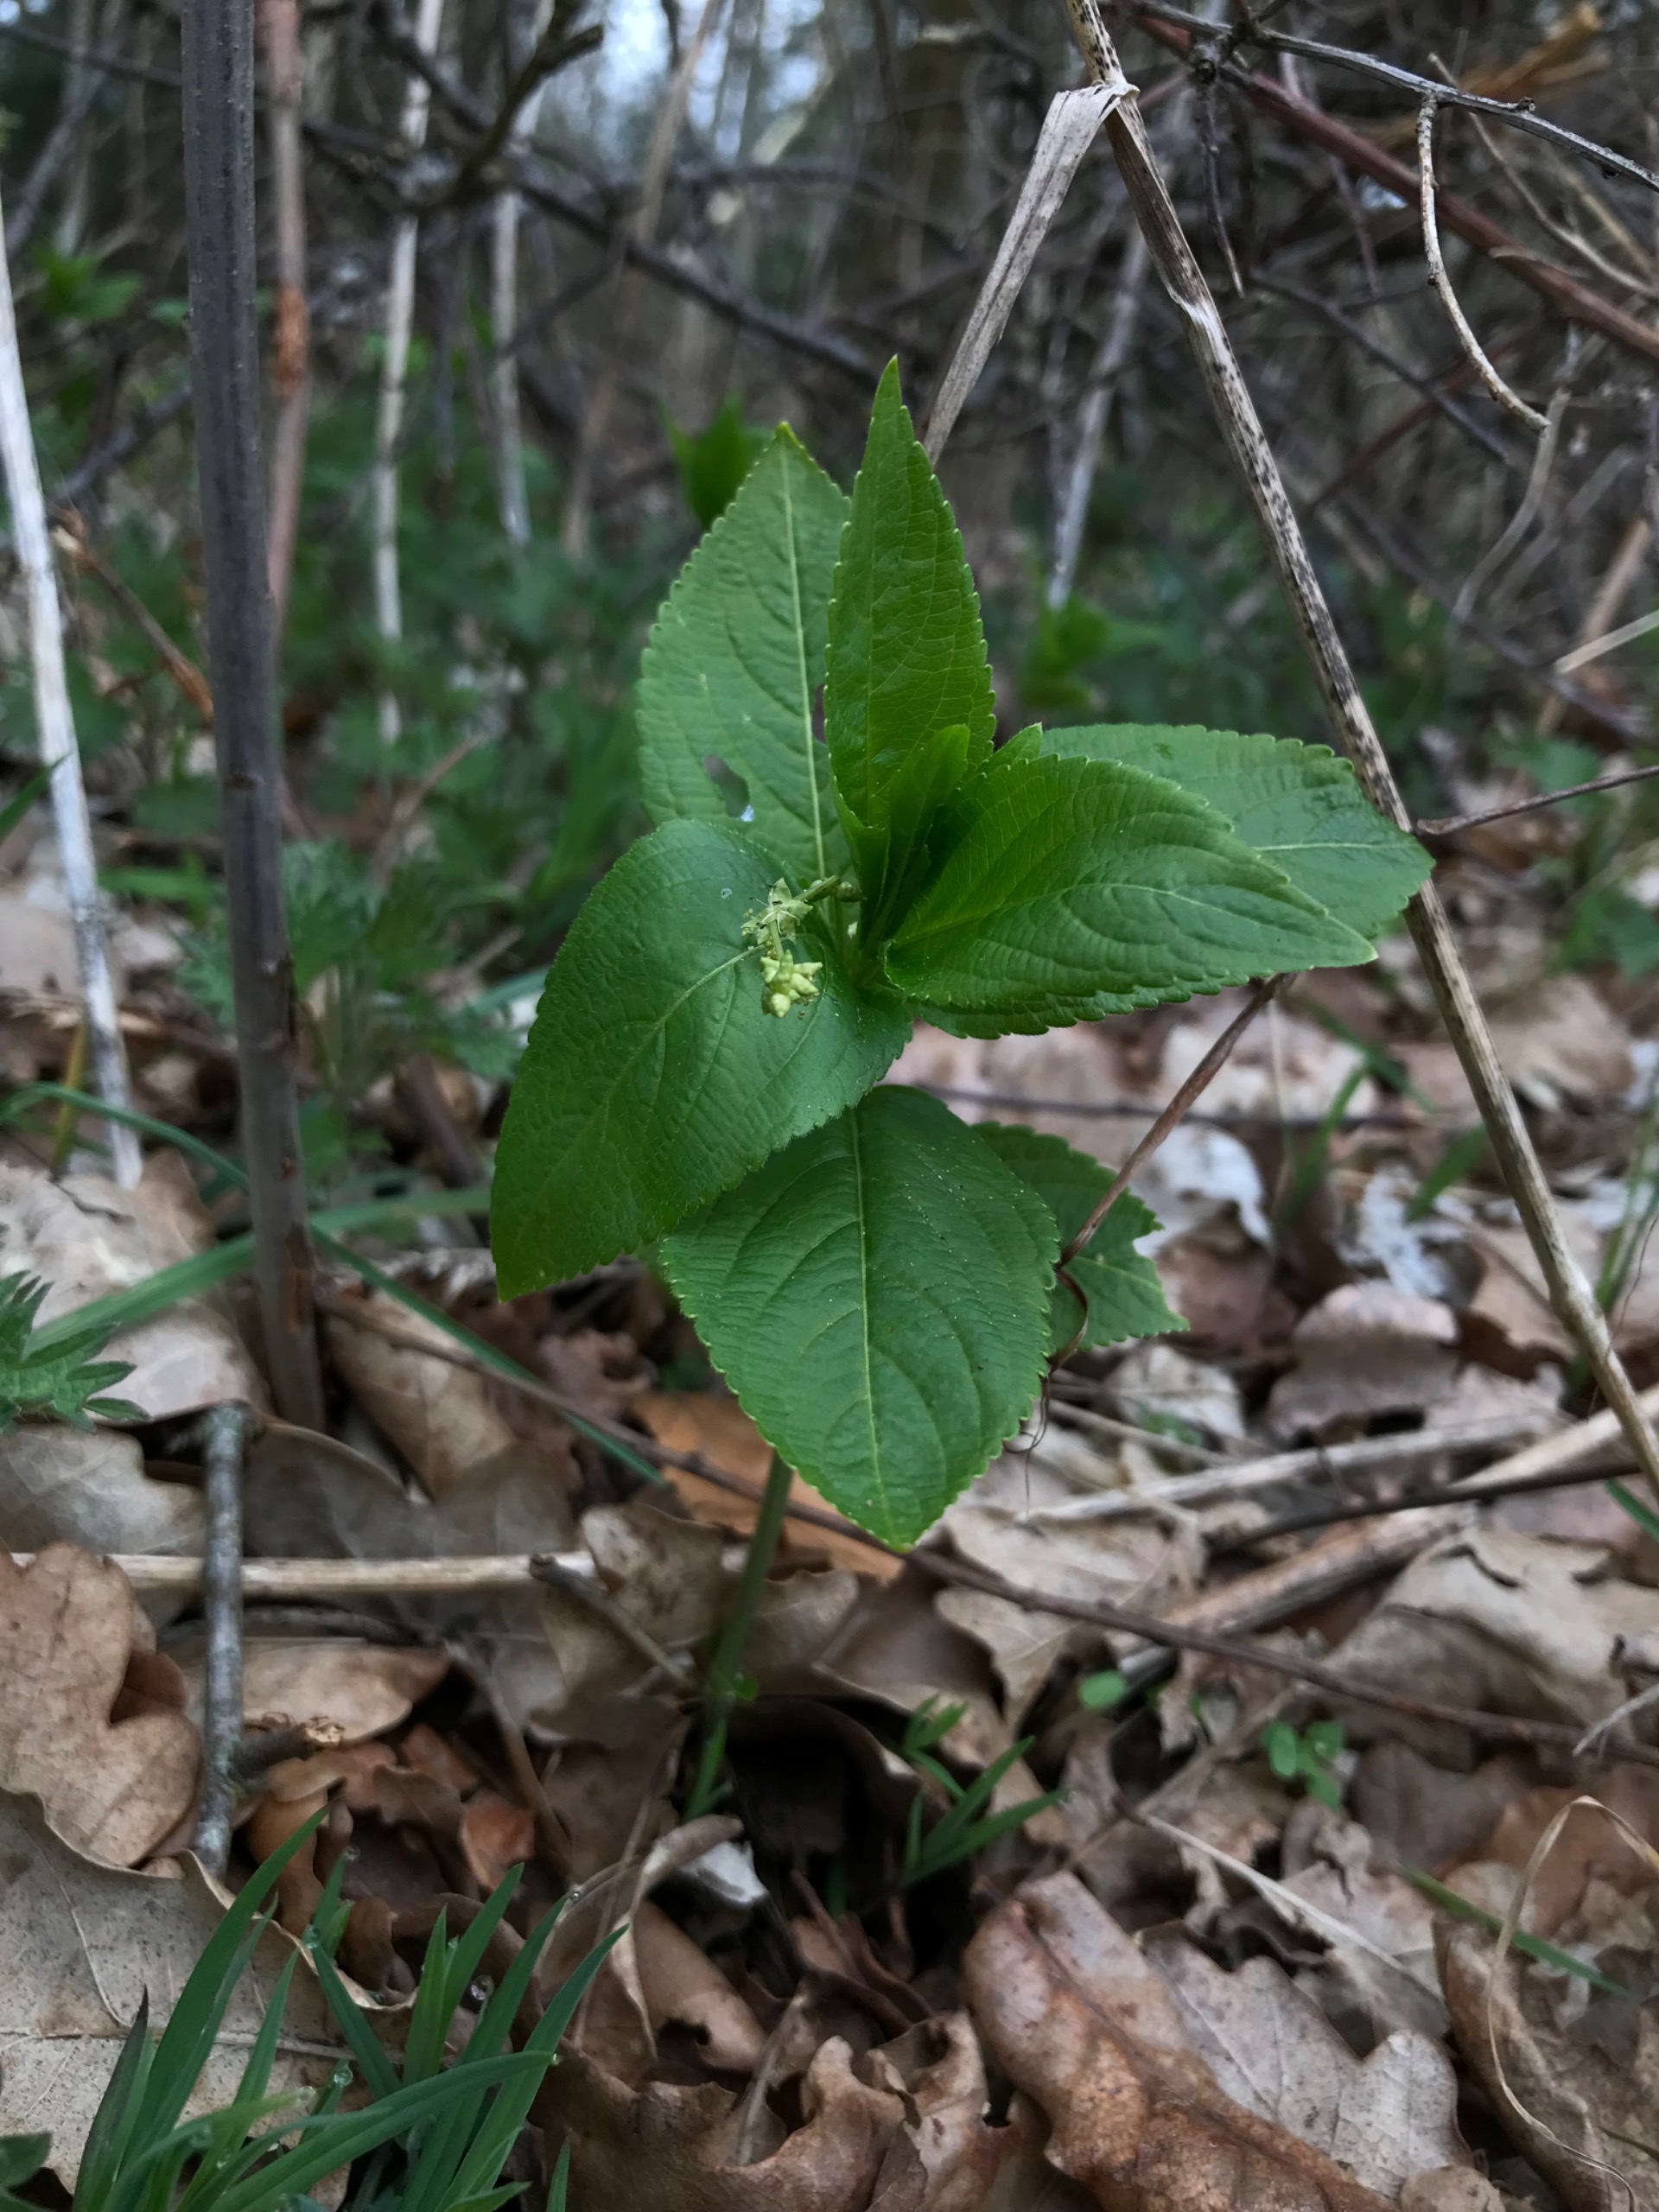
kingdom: Plantae
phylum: Tracheophyta
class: Magnoliopsida
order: Malpighiales
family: Euphorbiaceae
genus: Mercurialis
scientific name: Mercurialis perennis
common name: Almindelig bingelurt
